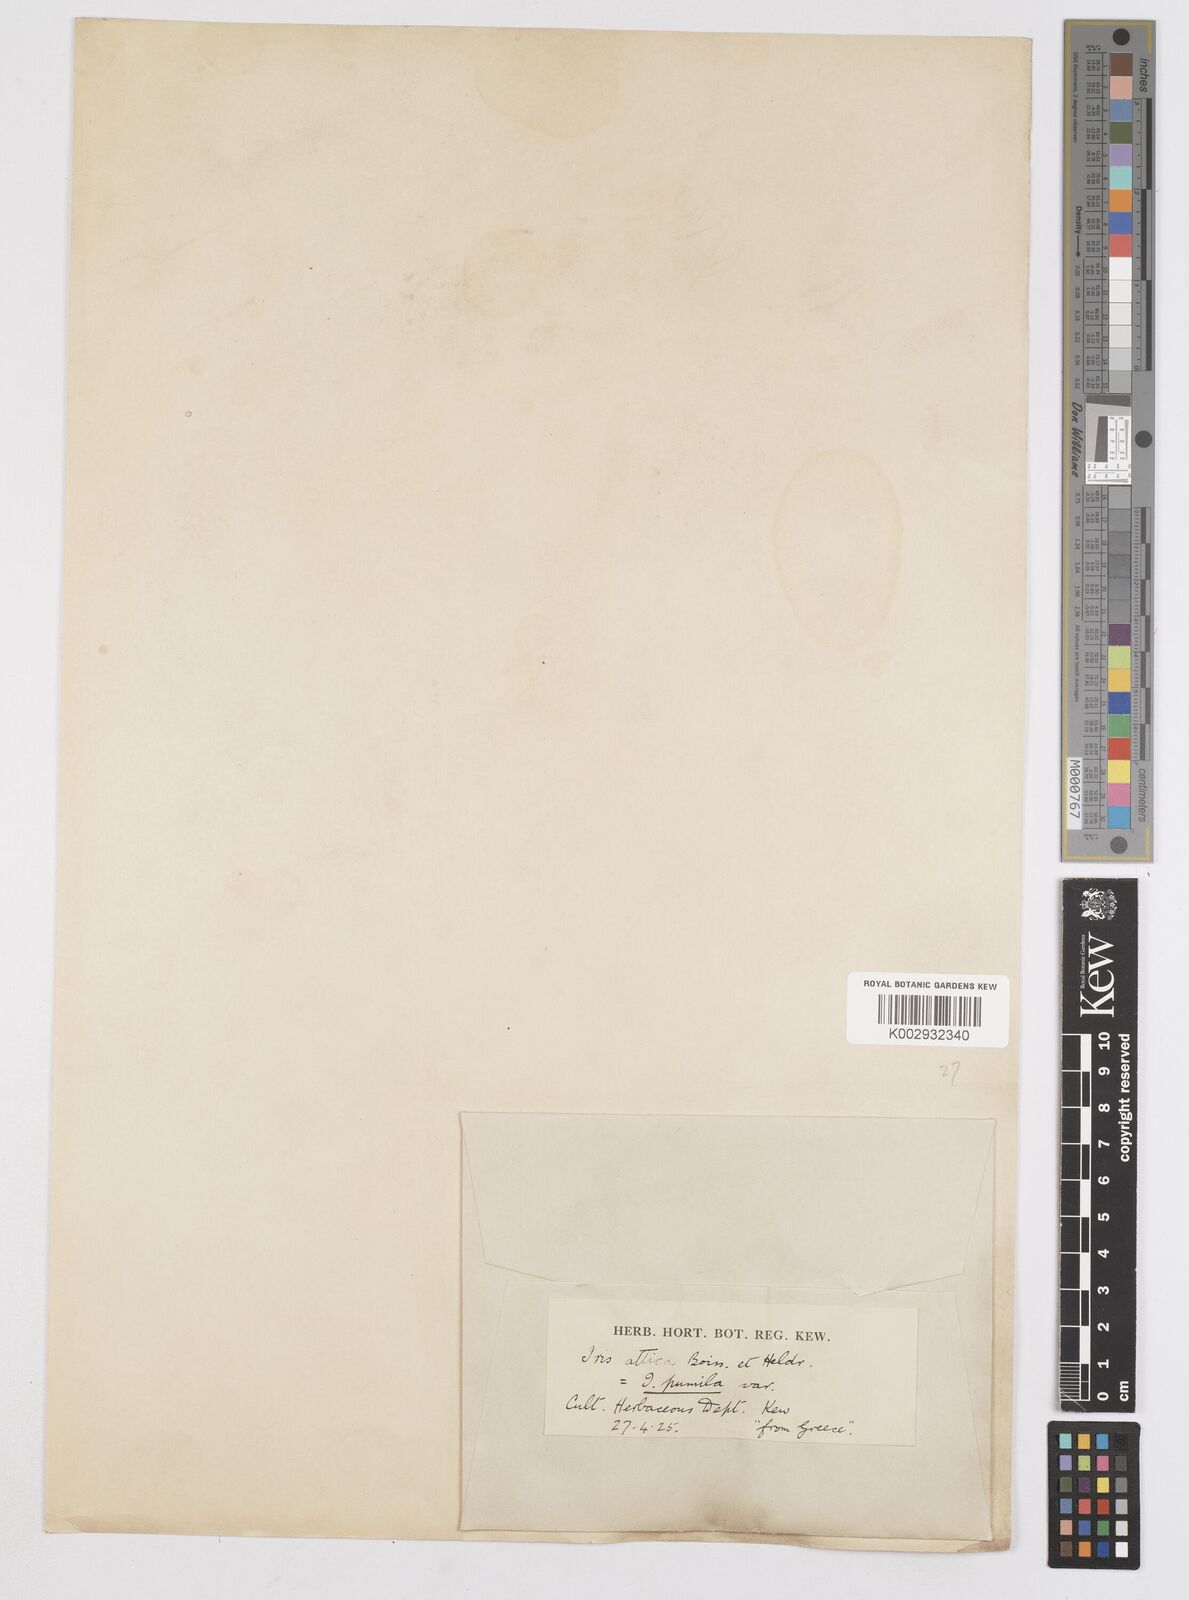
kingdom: Plantae
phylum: Tracheophyta
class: Liliopsida
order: Asparagales
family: Iridaceae
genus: Iris
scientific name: Iris pumila
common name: Dwarf iris
